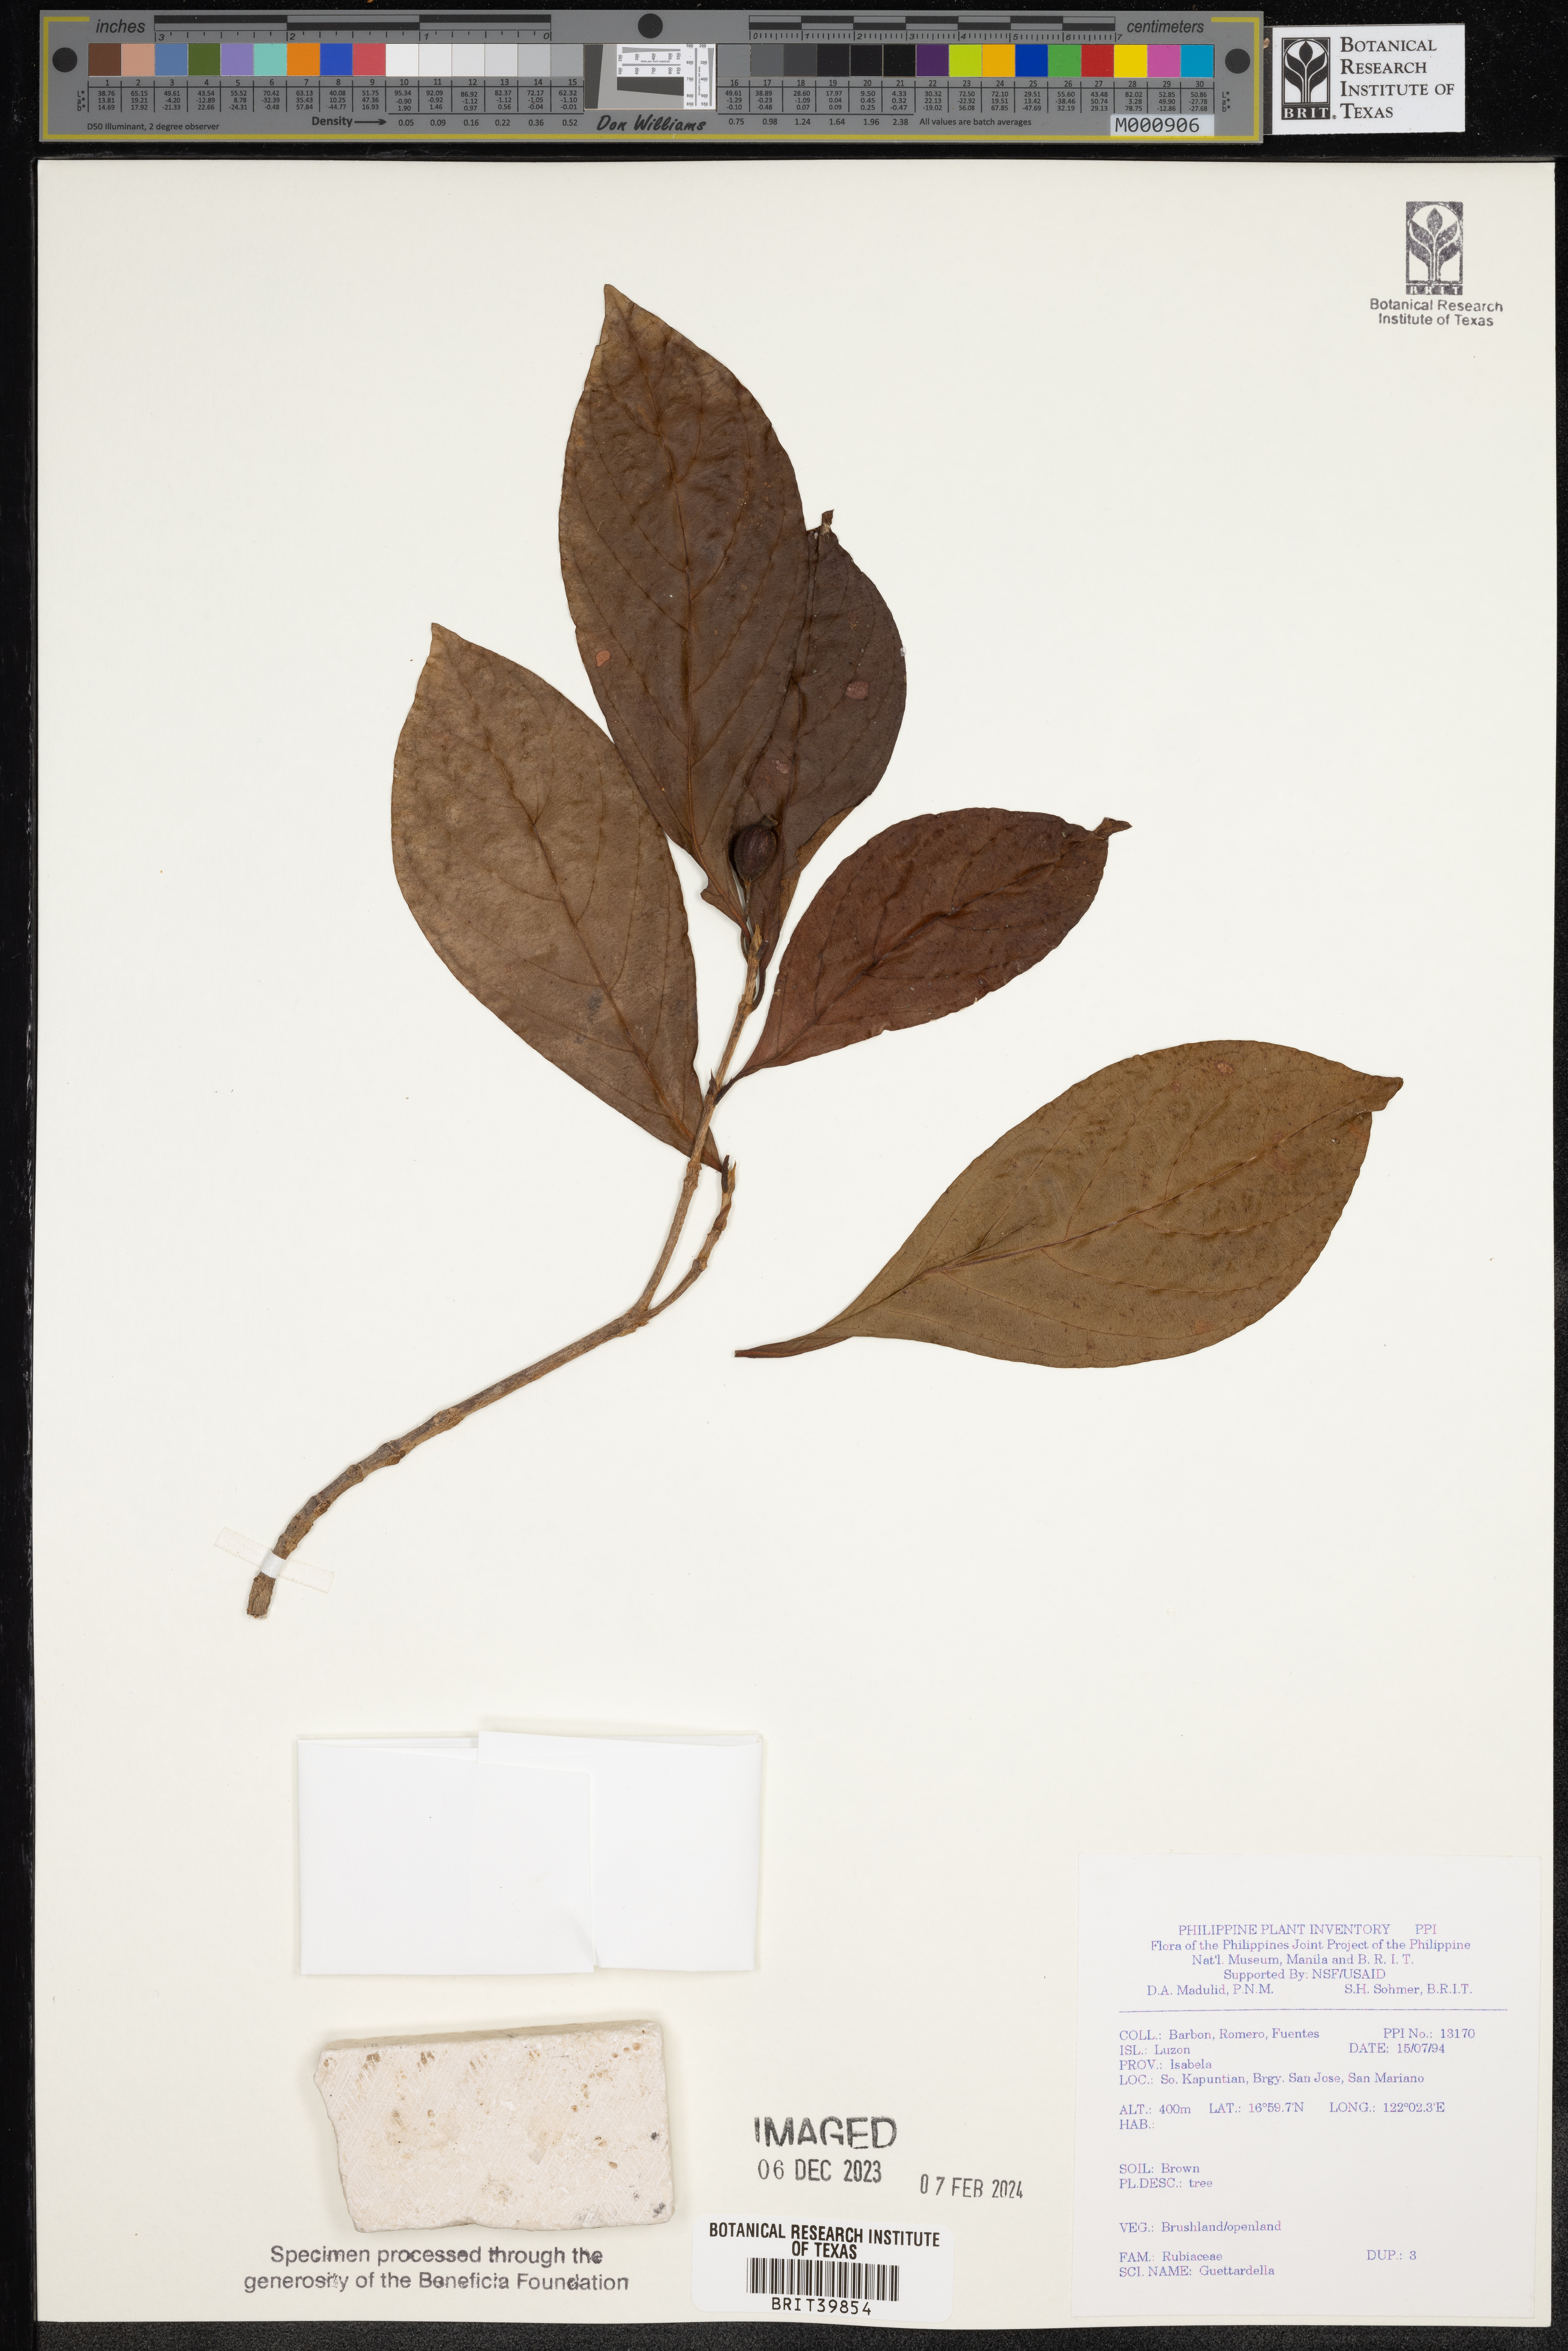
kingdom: Plantae
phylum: Tracheophyta
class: Magnoliopsida
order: Gentianales
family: Rubiaceae
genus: Guettardella
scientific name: Guettardella
